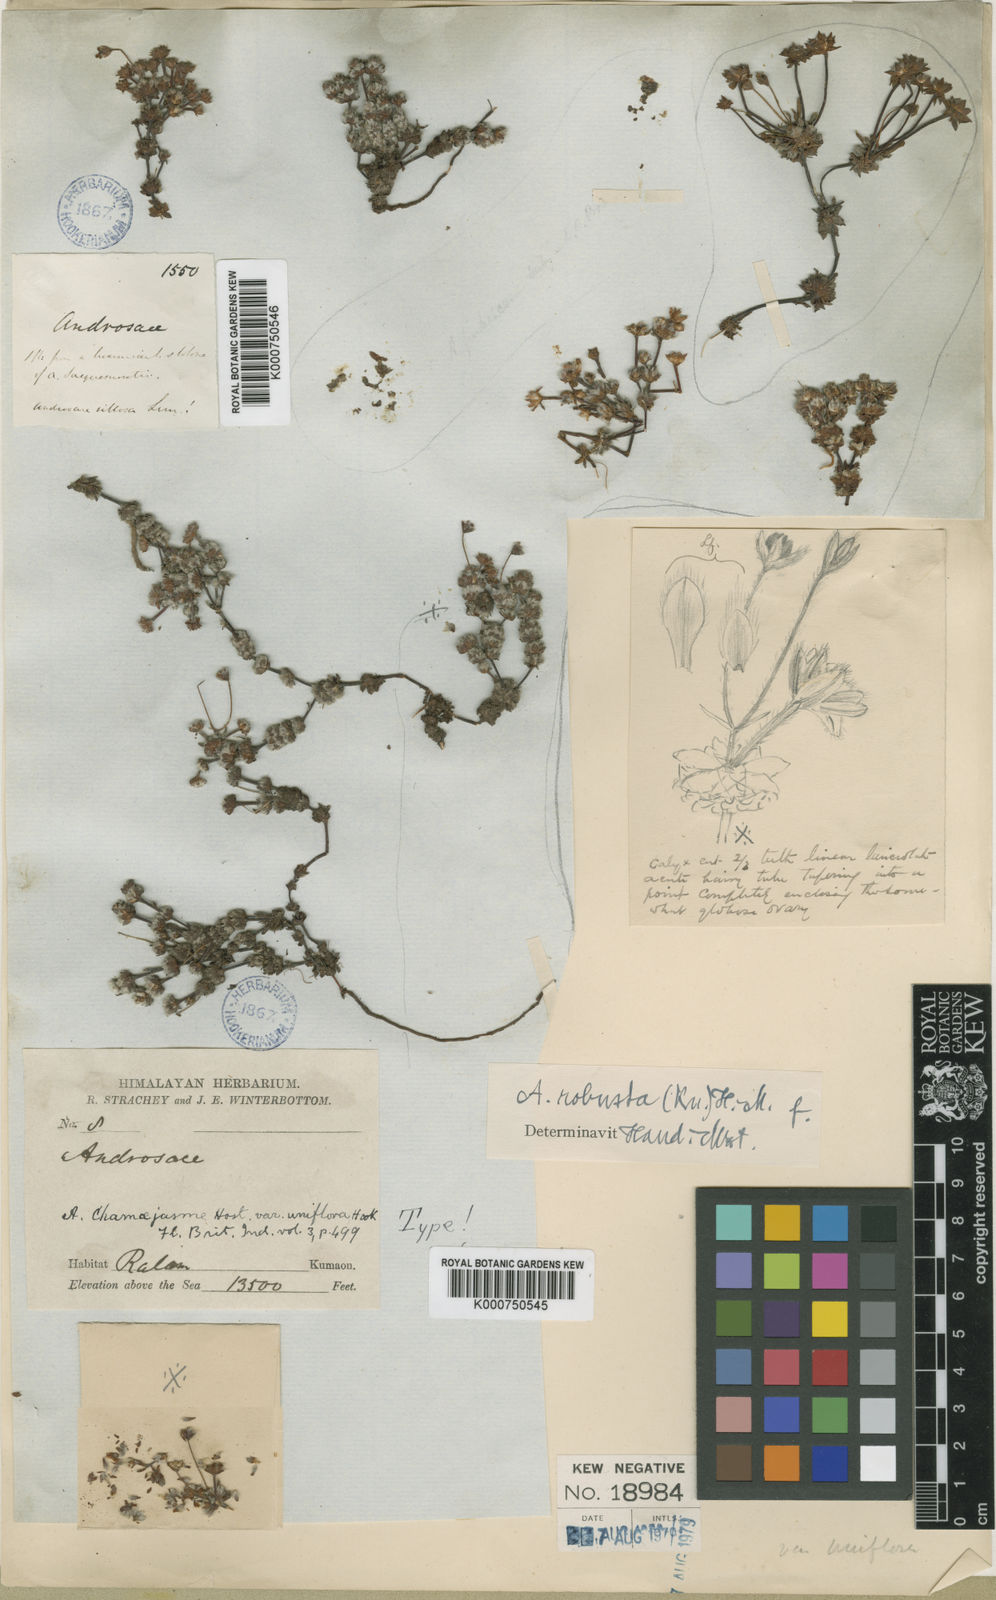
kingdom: Plantae
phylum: Tracheophyta
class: Magnoliopsida
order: Ericales
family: Primulaceae
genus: Androsace
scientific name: Androsace
